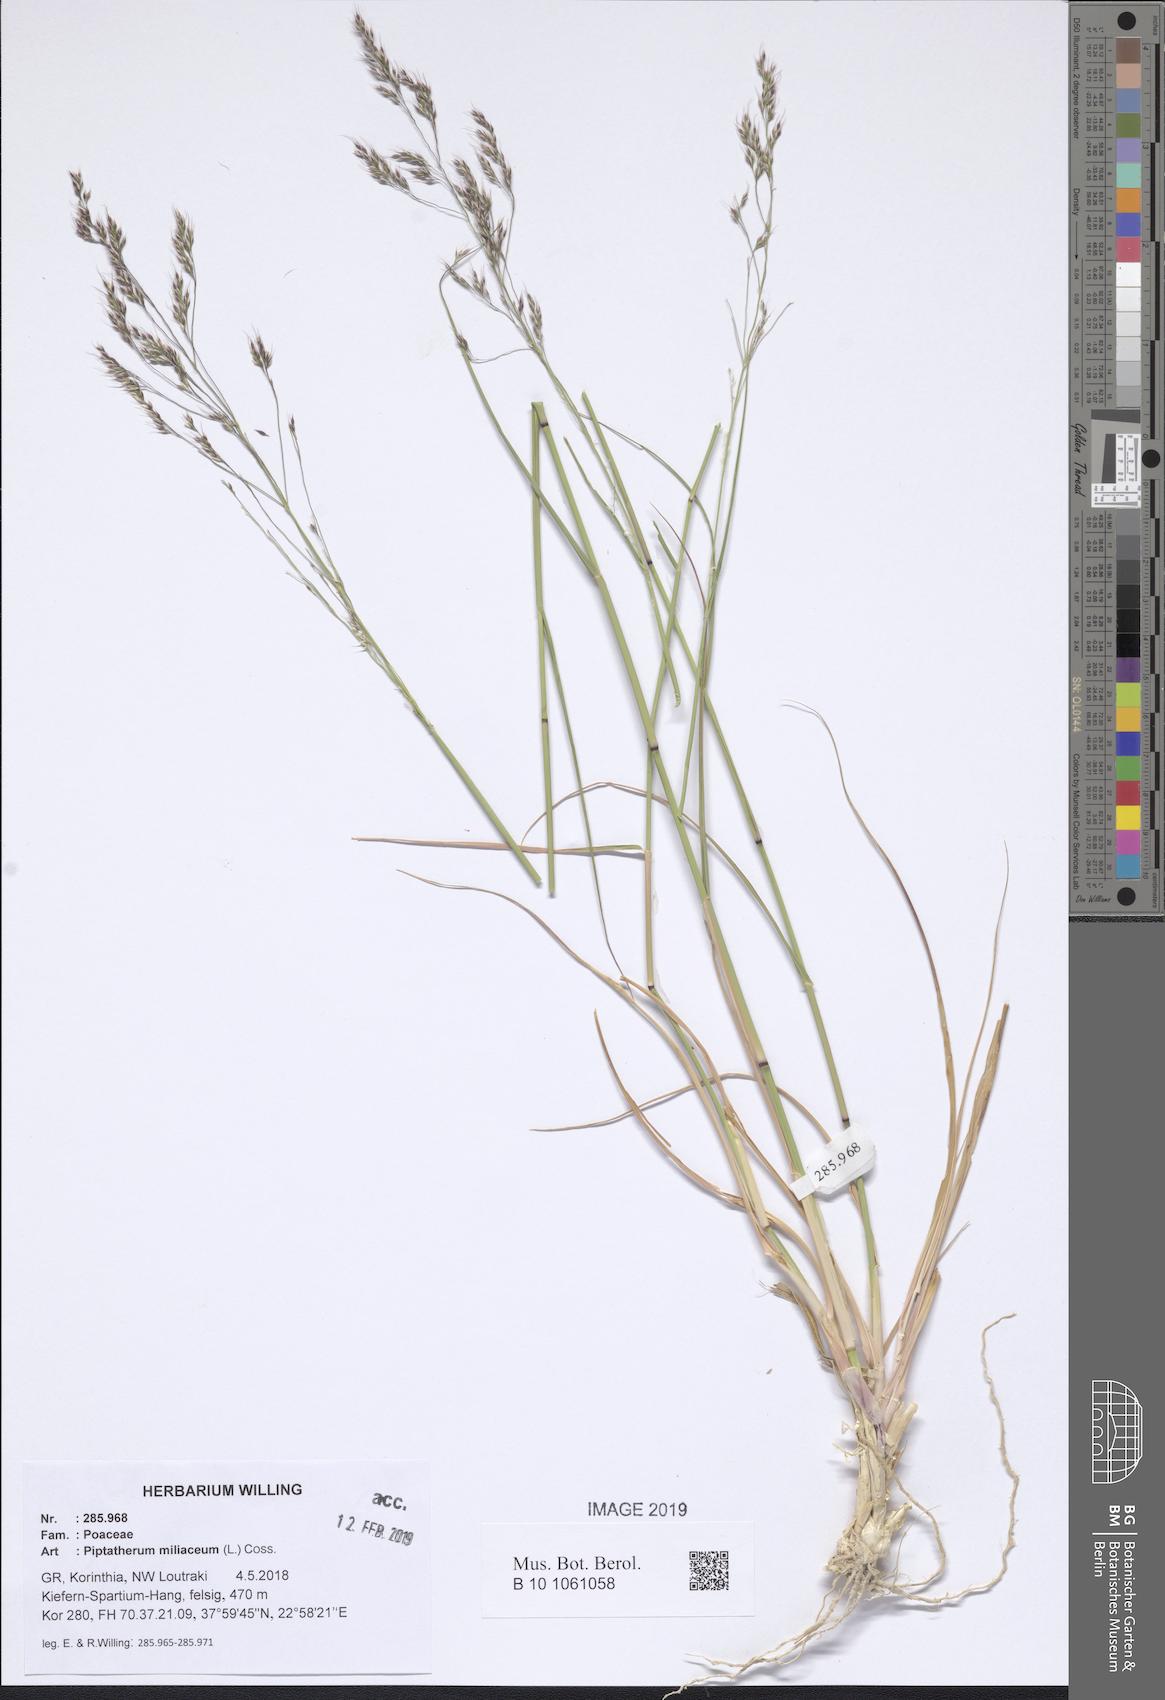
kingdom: Plantae
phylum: Tracheophyta
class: Liliopsida
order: Poales
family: Poaceae
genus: Oloptum
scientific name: Oloptum miliaceum
